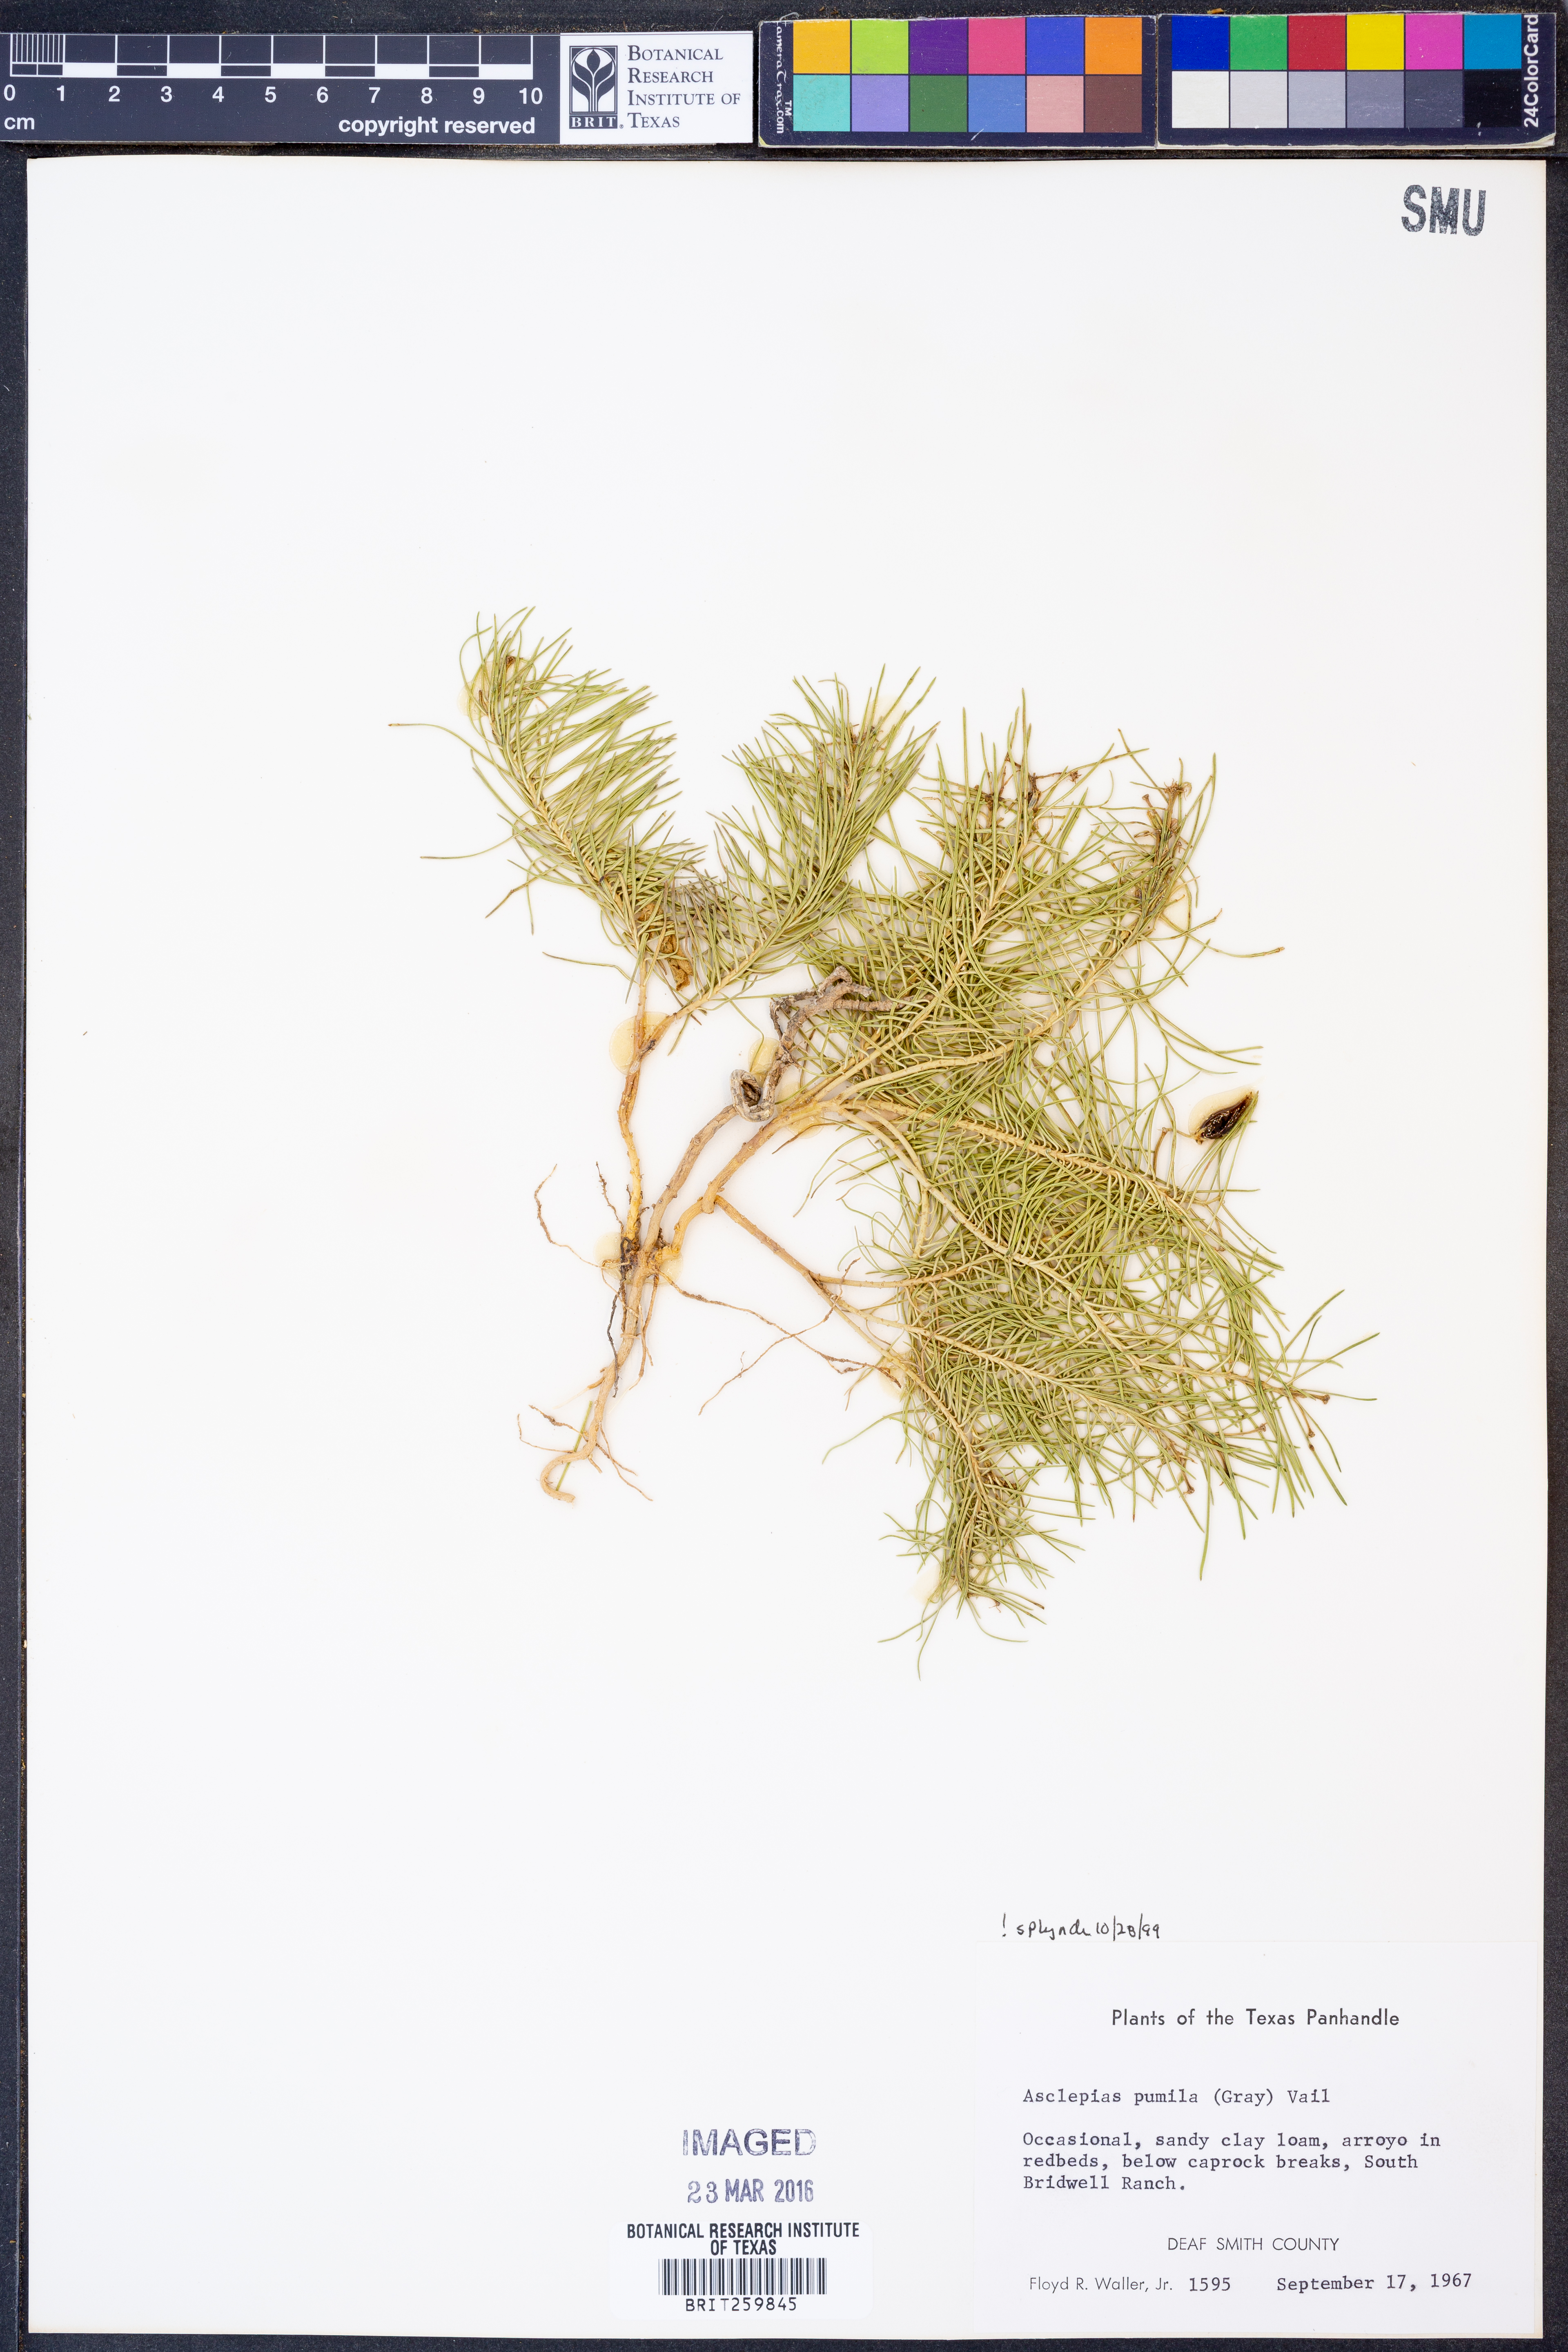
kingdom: Plantae
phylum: Tracheophyta
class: Magnoliopsida
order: Gentianales
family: Apocynaceae
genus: Asclepias
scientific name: Asclepias pumila
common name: Dwarf milkweed
